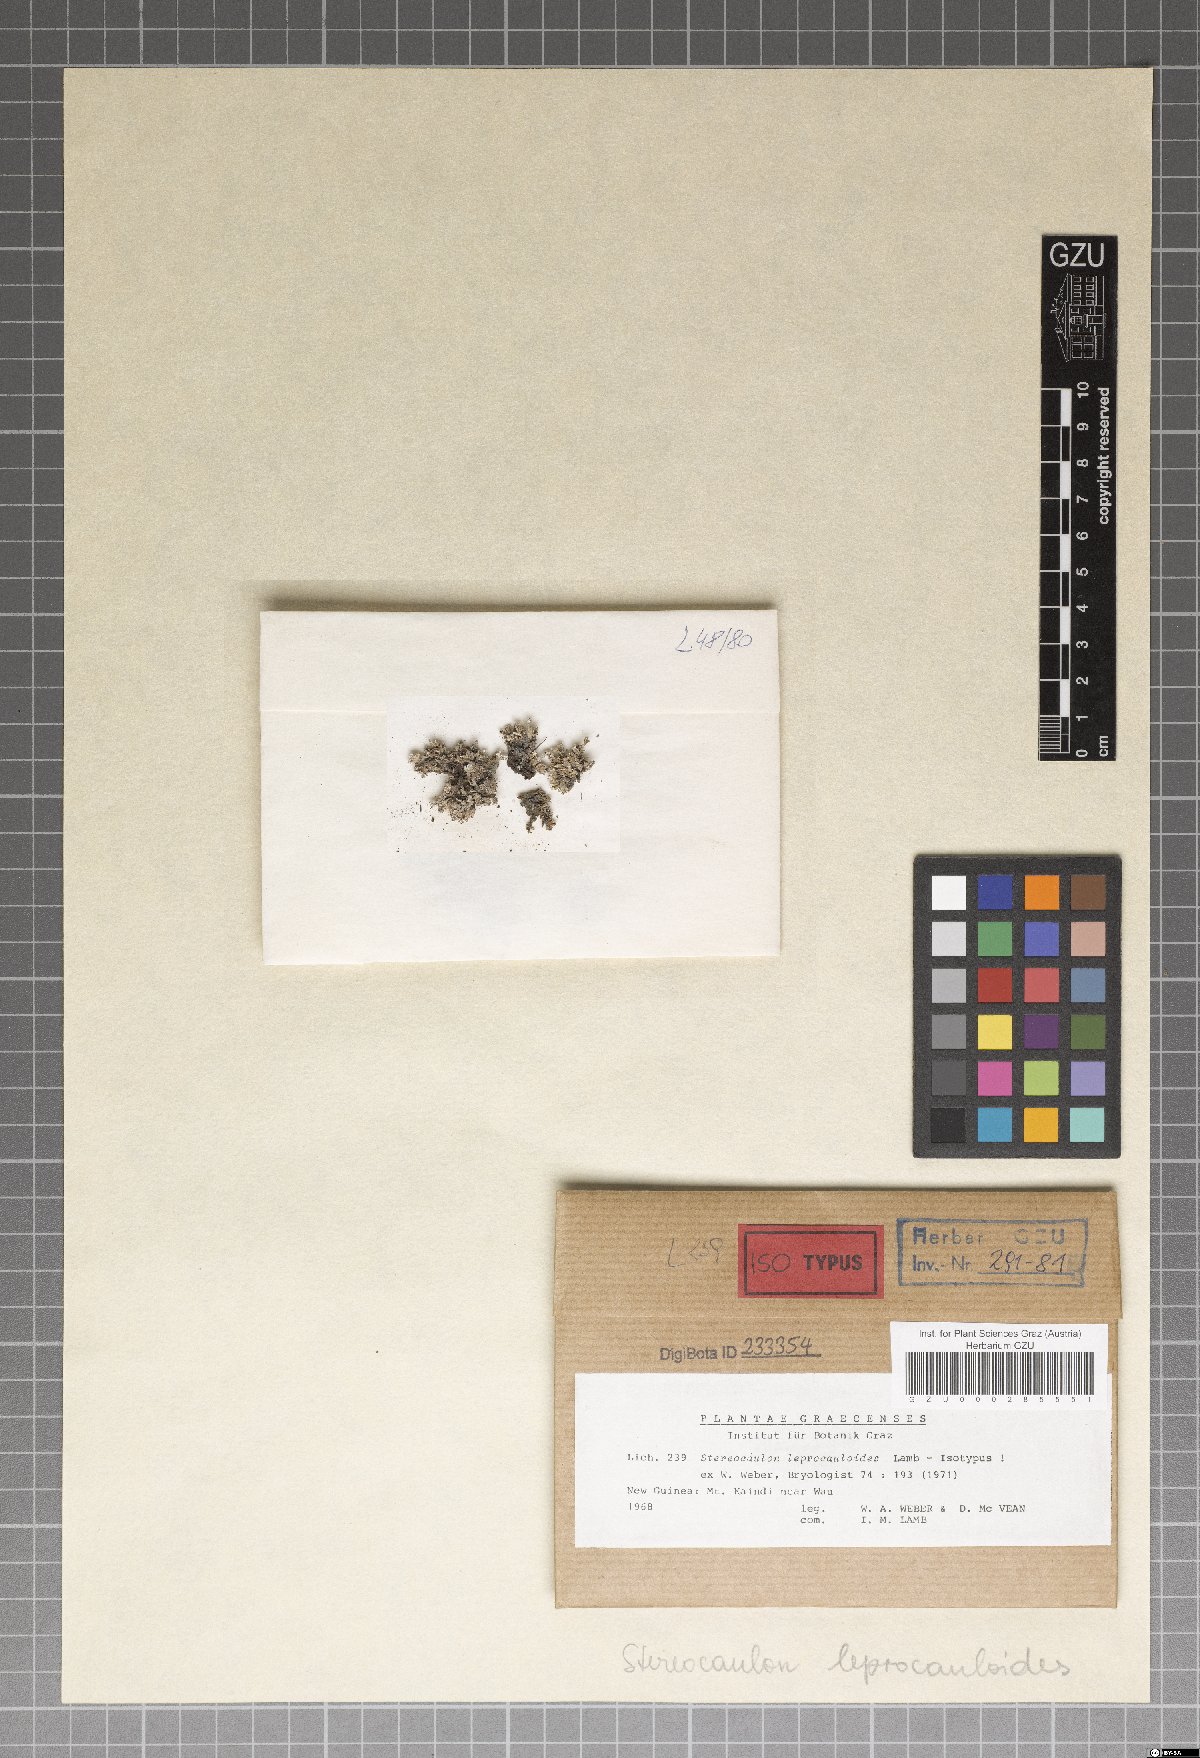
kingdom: Fungi
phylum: Ascomycota
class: Lecanoromycetes
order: Lecanorales
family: Stereocaulaceae
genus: Stereocaulon
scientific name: Stereocaulon leprocauloides
